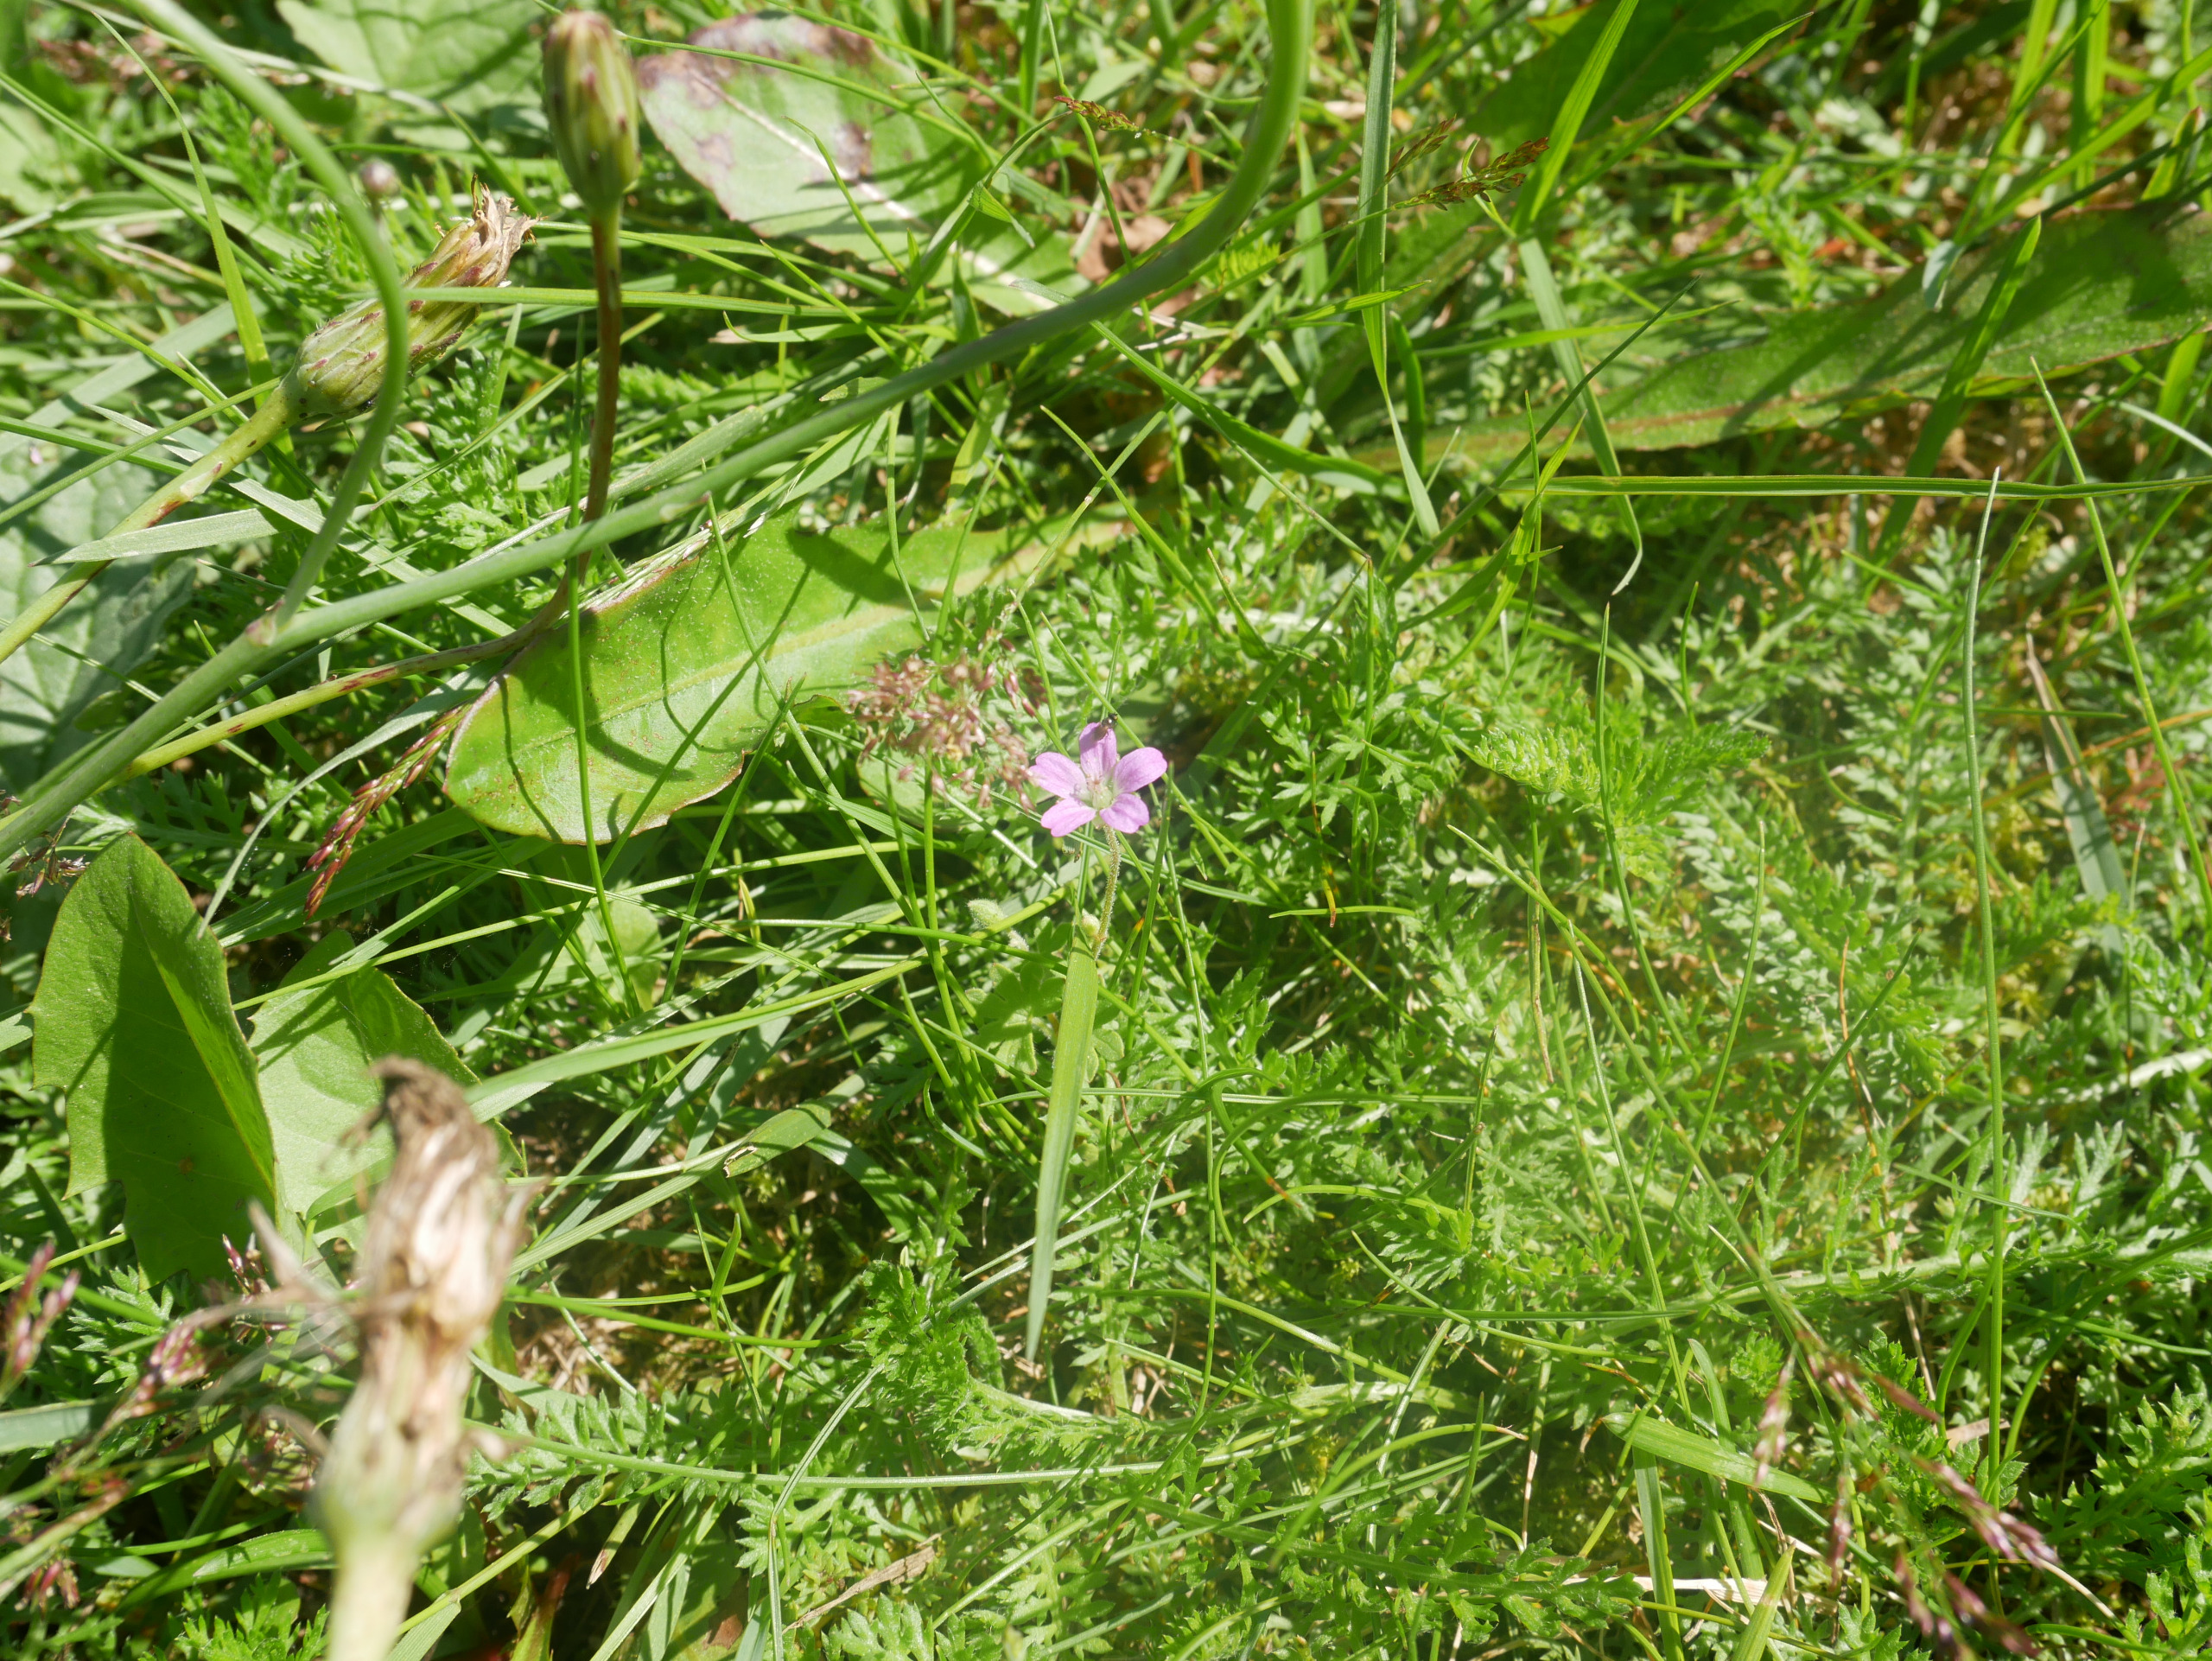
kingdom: Plantae
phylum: Tracheophyta
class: Magnoliopsida
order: Geraniales
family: Geraniaceae
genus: Geranium
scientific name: Geranium molle
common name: Blød storkenæb
